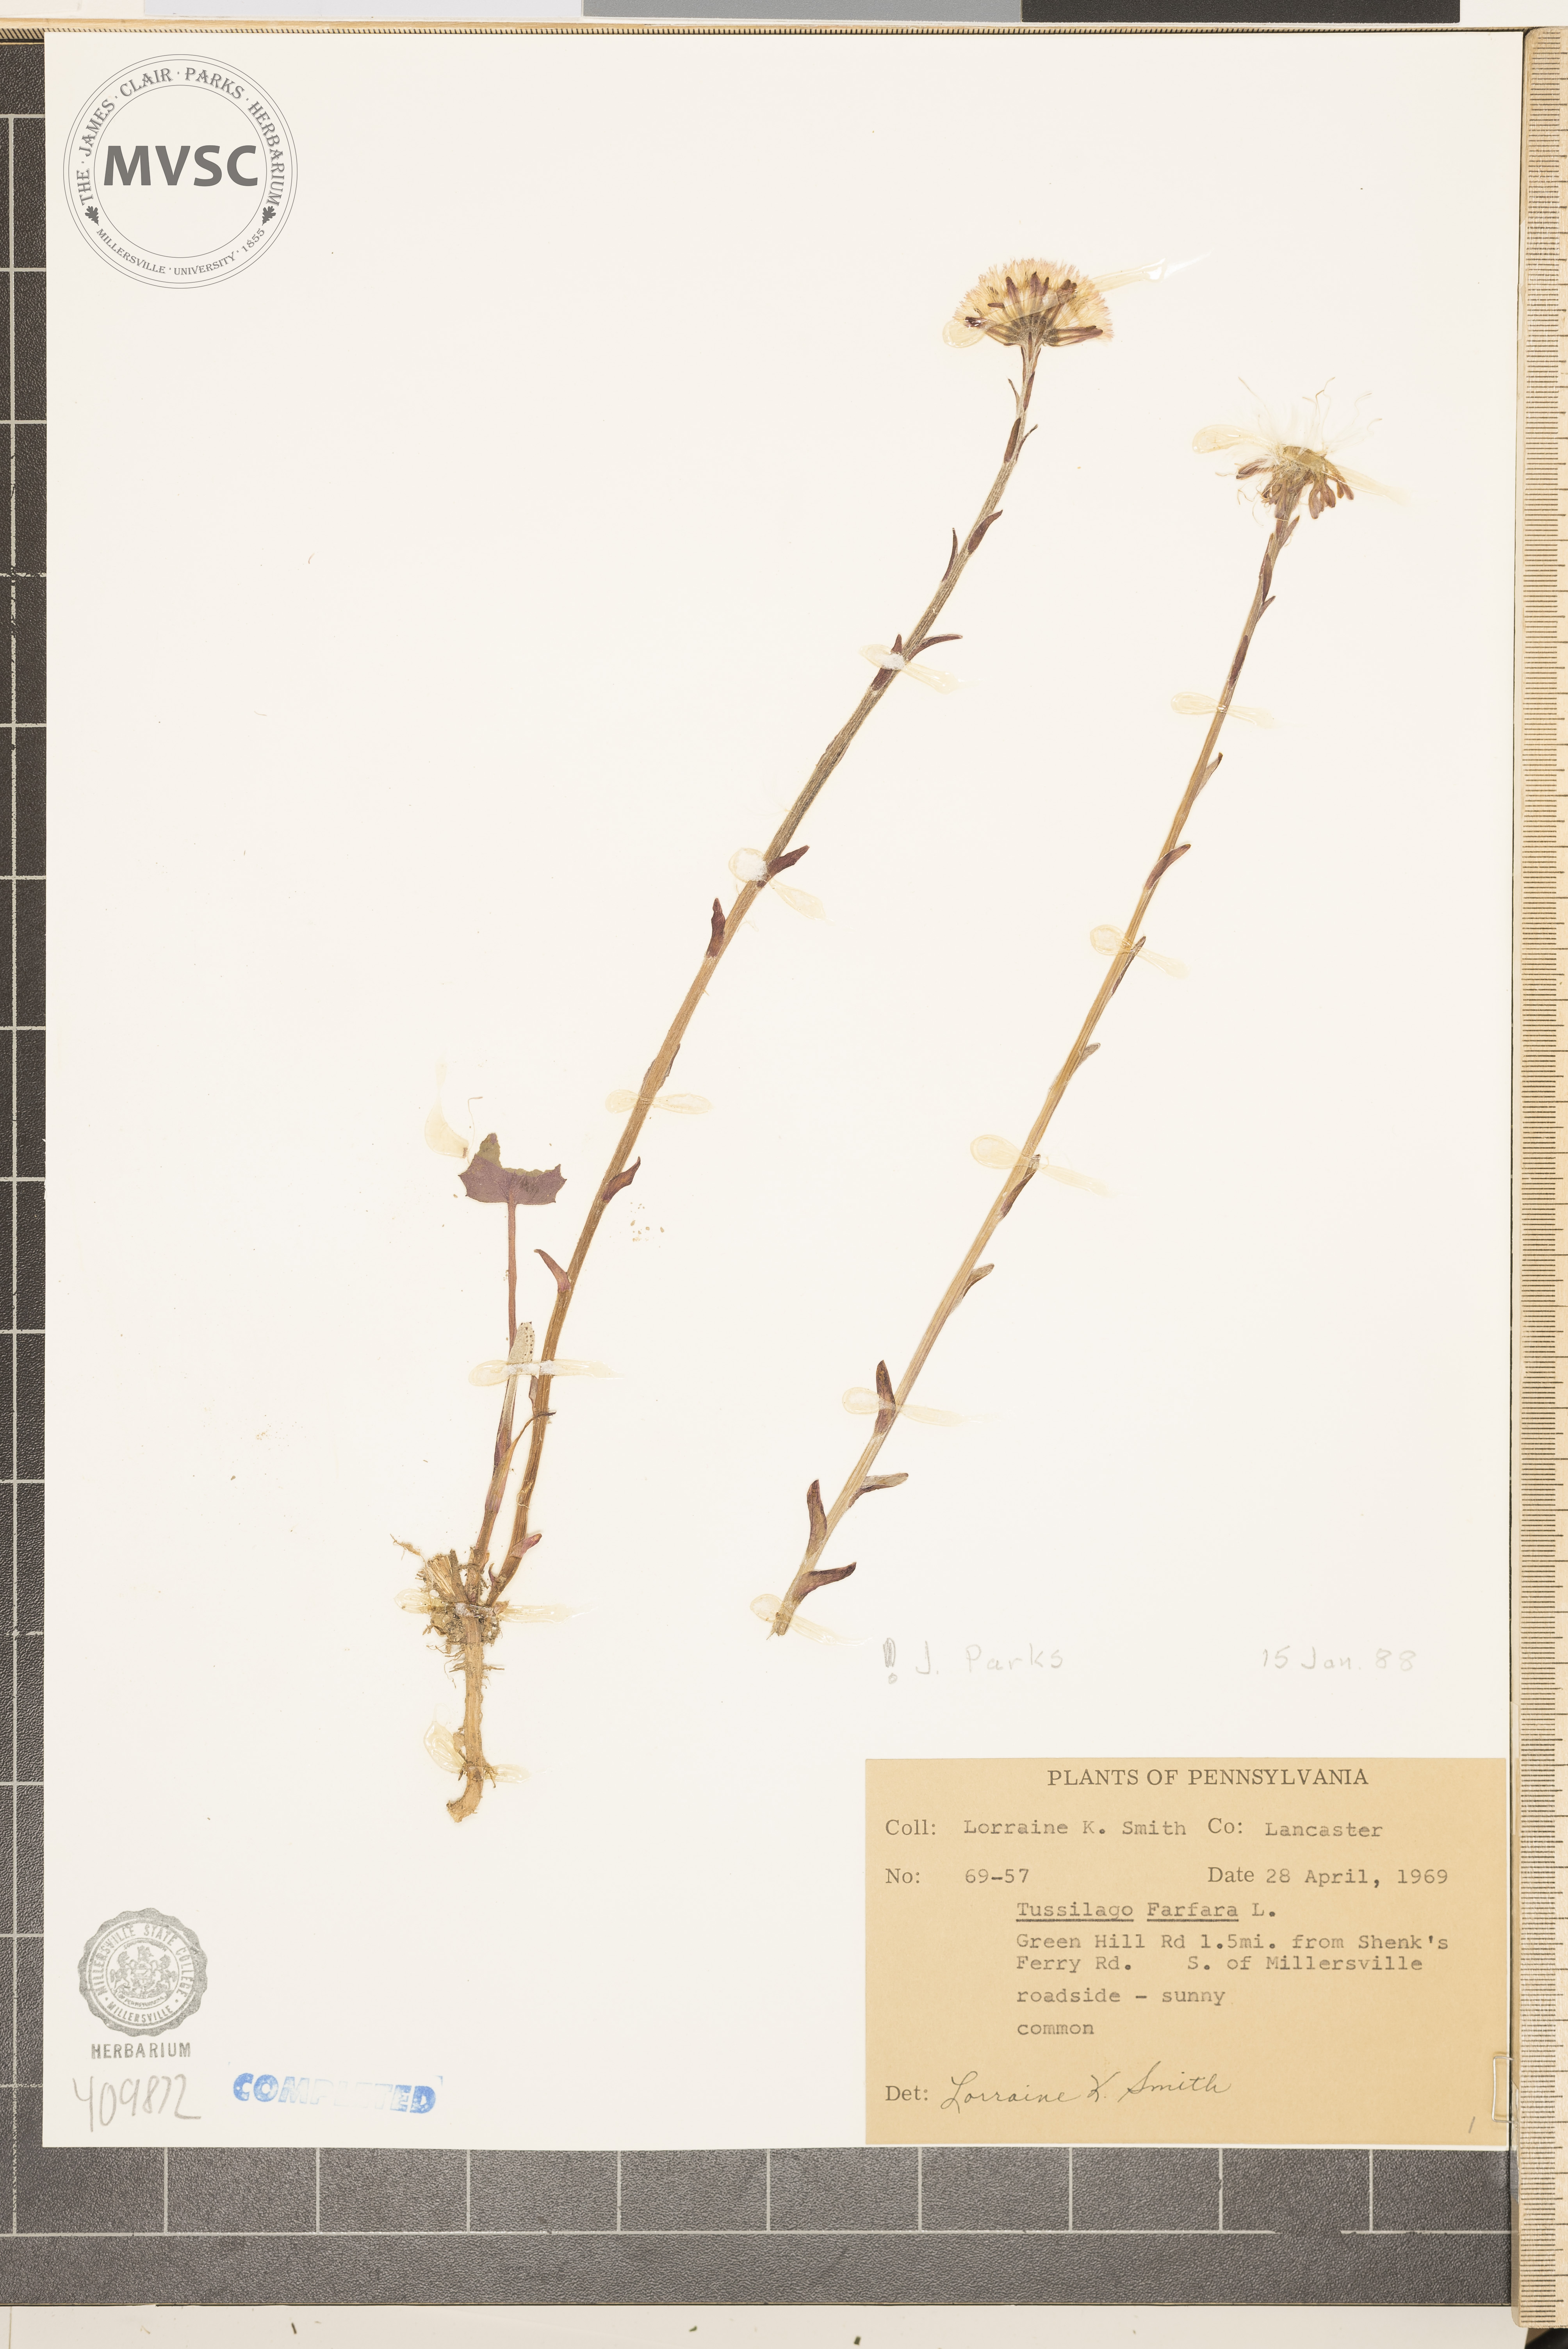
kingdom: Plantae
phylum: Tracheophyta
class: Magnoliopsida
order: Asterales
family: Asteraceae
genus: Tussilago
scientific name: Tussilago farfara
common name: Coltsfoot
